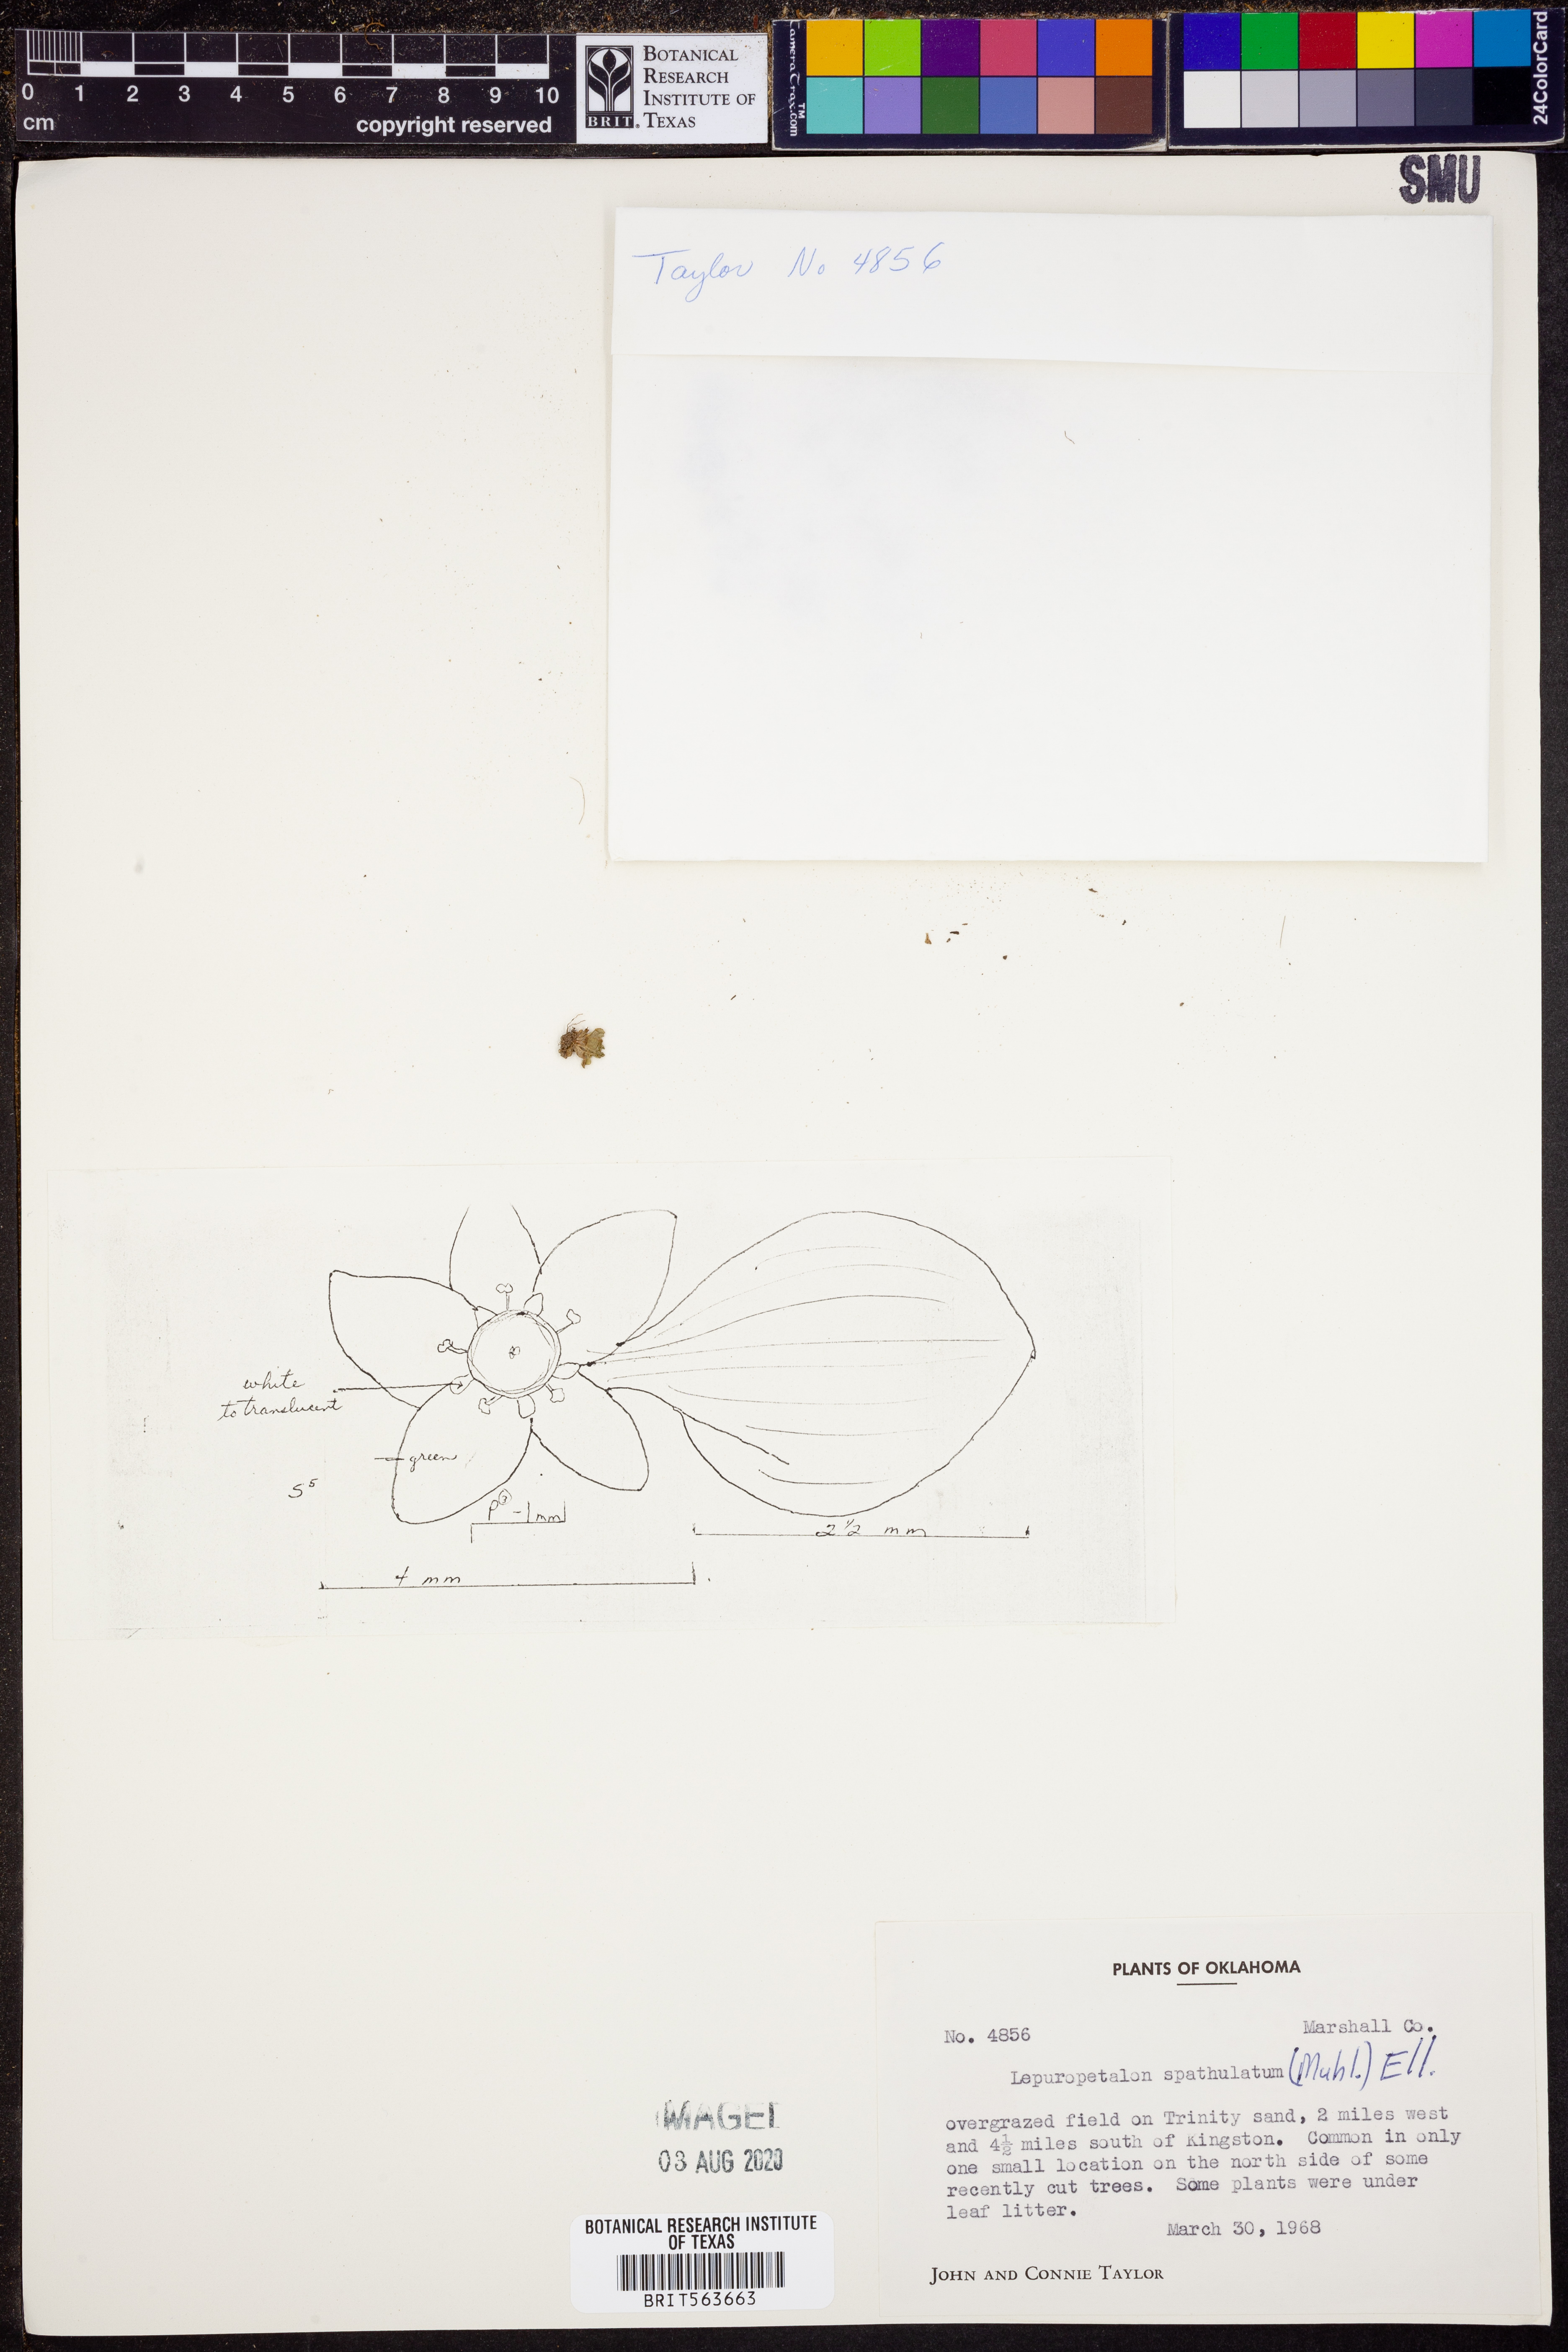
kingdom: Plantae
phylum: Tracheophyta
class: Magnoliopsida
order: Celastrales
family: Parnassiaceae
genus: Lepuropetalon
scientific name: Lepuropetalon spathulatum
